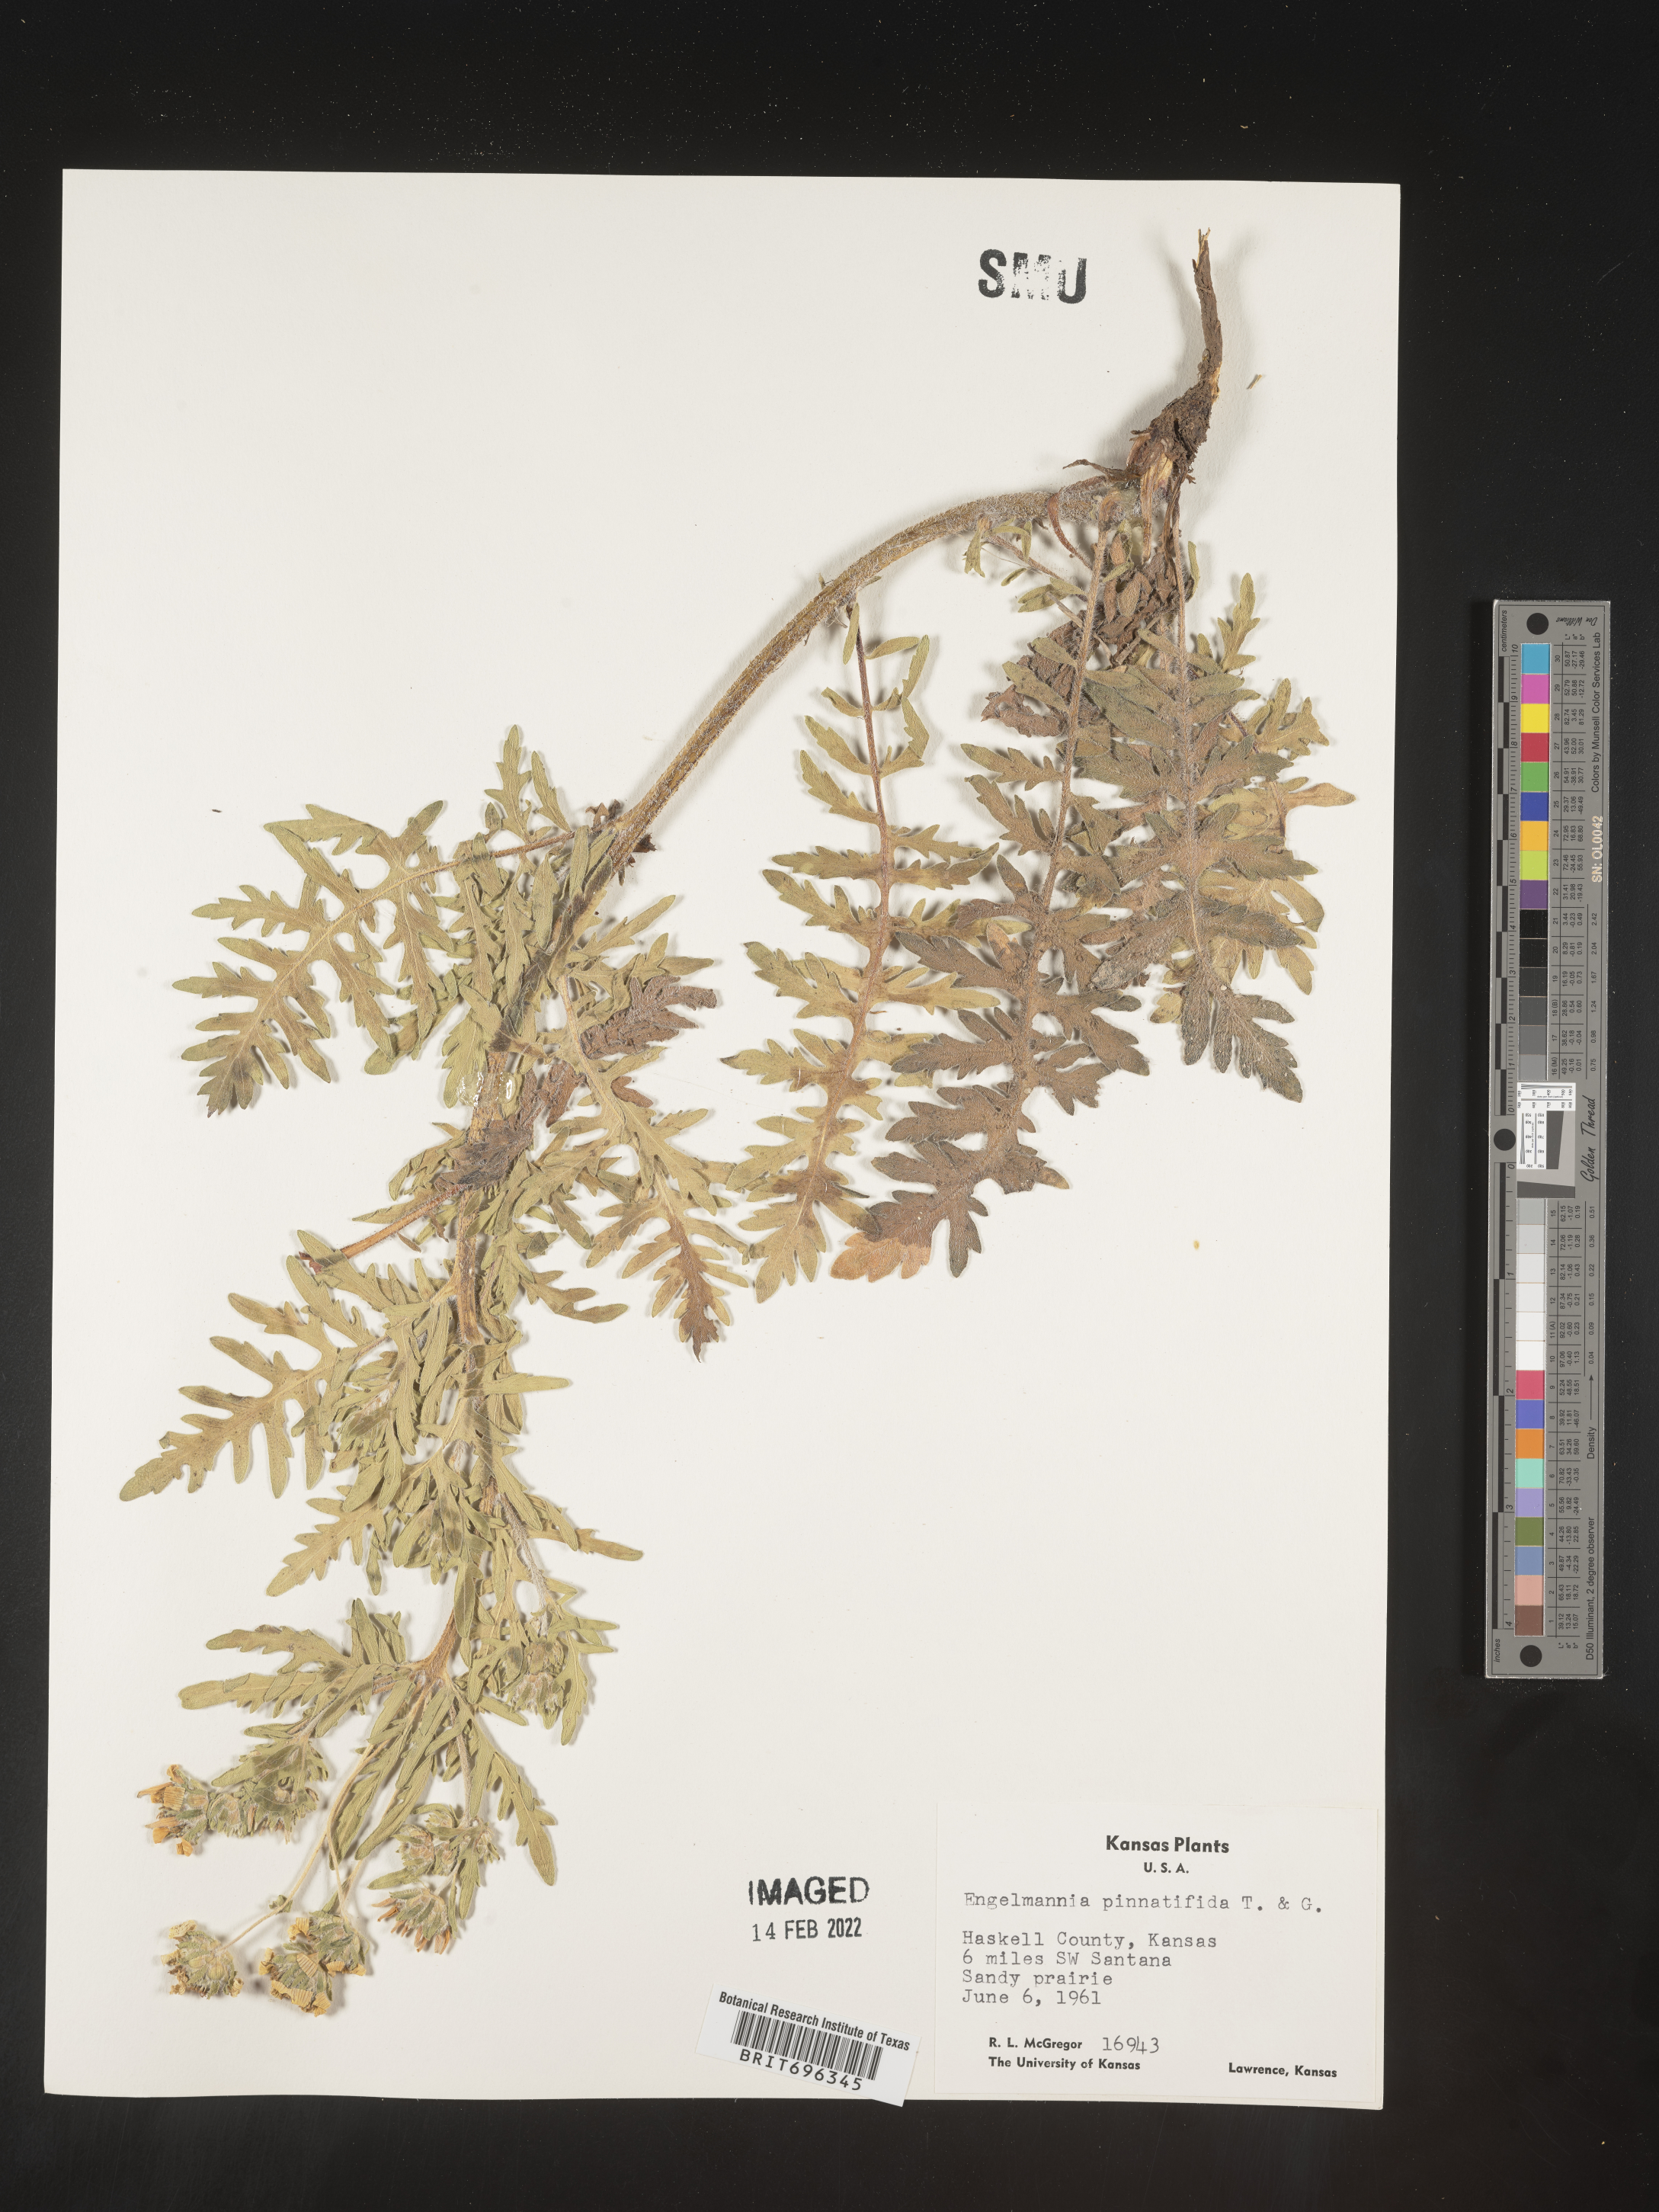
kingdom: Plantae
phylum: Tracheophyta
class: Magnoliopsida
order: Asterales
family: Asteraceae
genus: Engelmannia
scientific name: Engelmannia peristenia
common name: Engelmann's daisy
